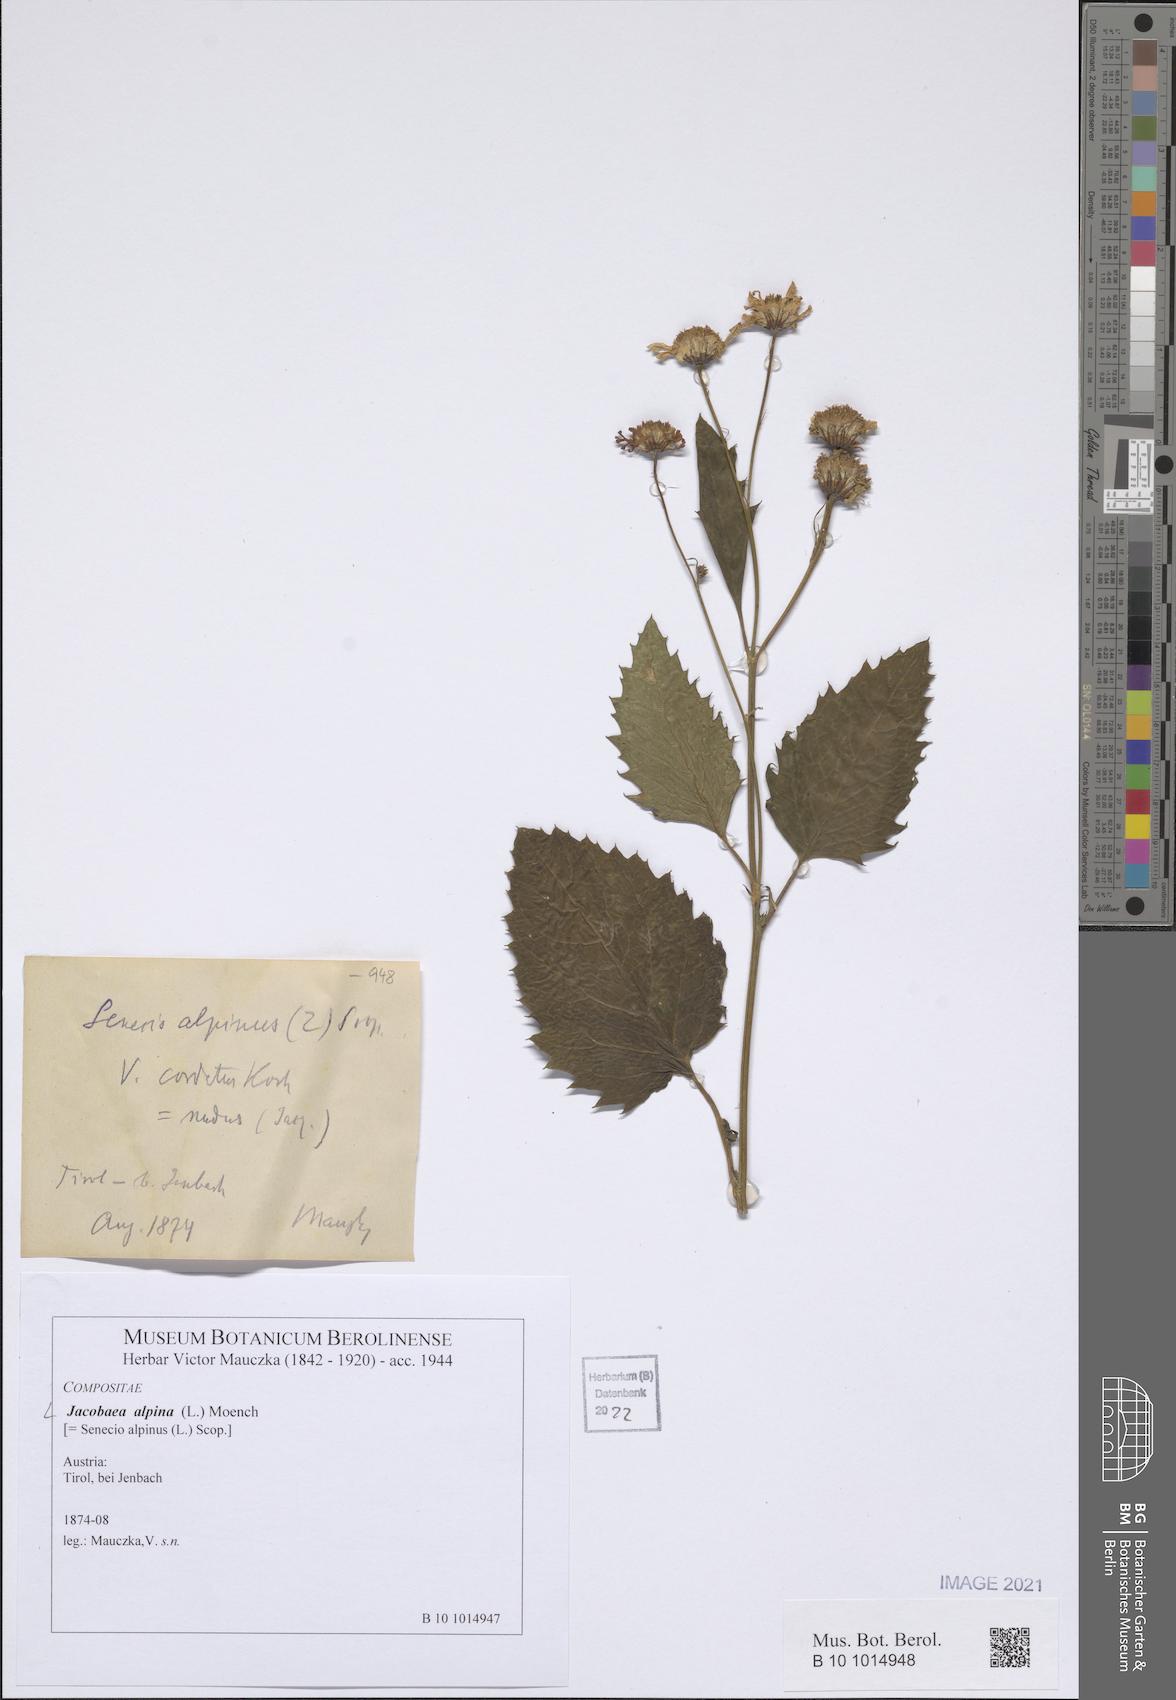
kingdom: Plantae
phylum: Tracheophyta
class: Magnoliopsida
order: Asterales
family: Asteraceae
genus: Jacobaea
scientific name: Jacobaea alpina
